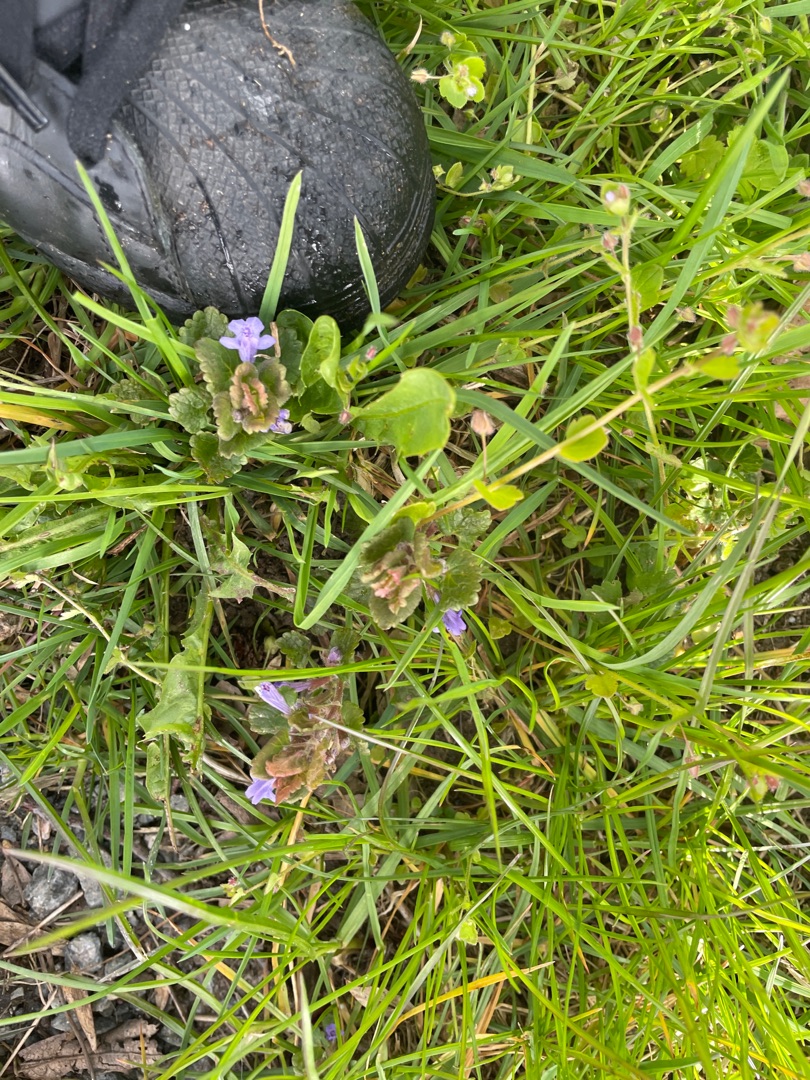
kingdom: Plantae
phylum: Tracheophyta
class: Magnoliopsida
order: Lamiales
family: Lamiaceae
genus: Glechoma
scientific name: Glechoma hederacea
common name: Korsknap
